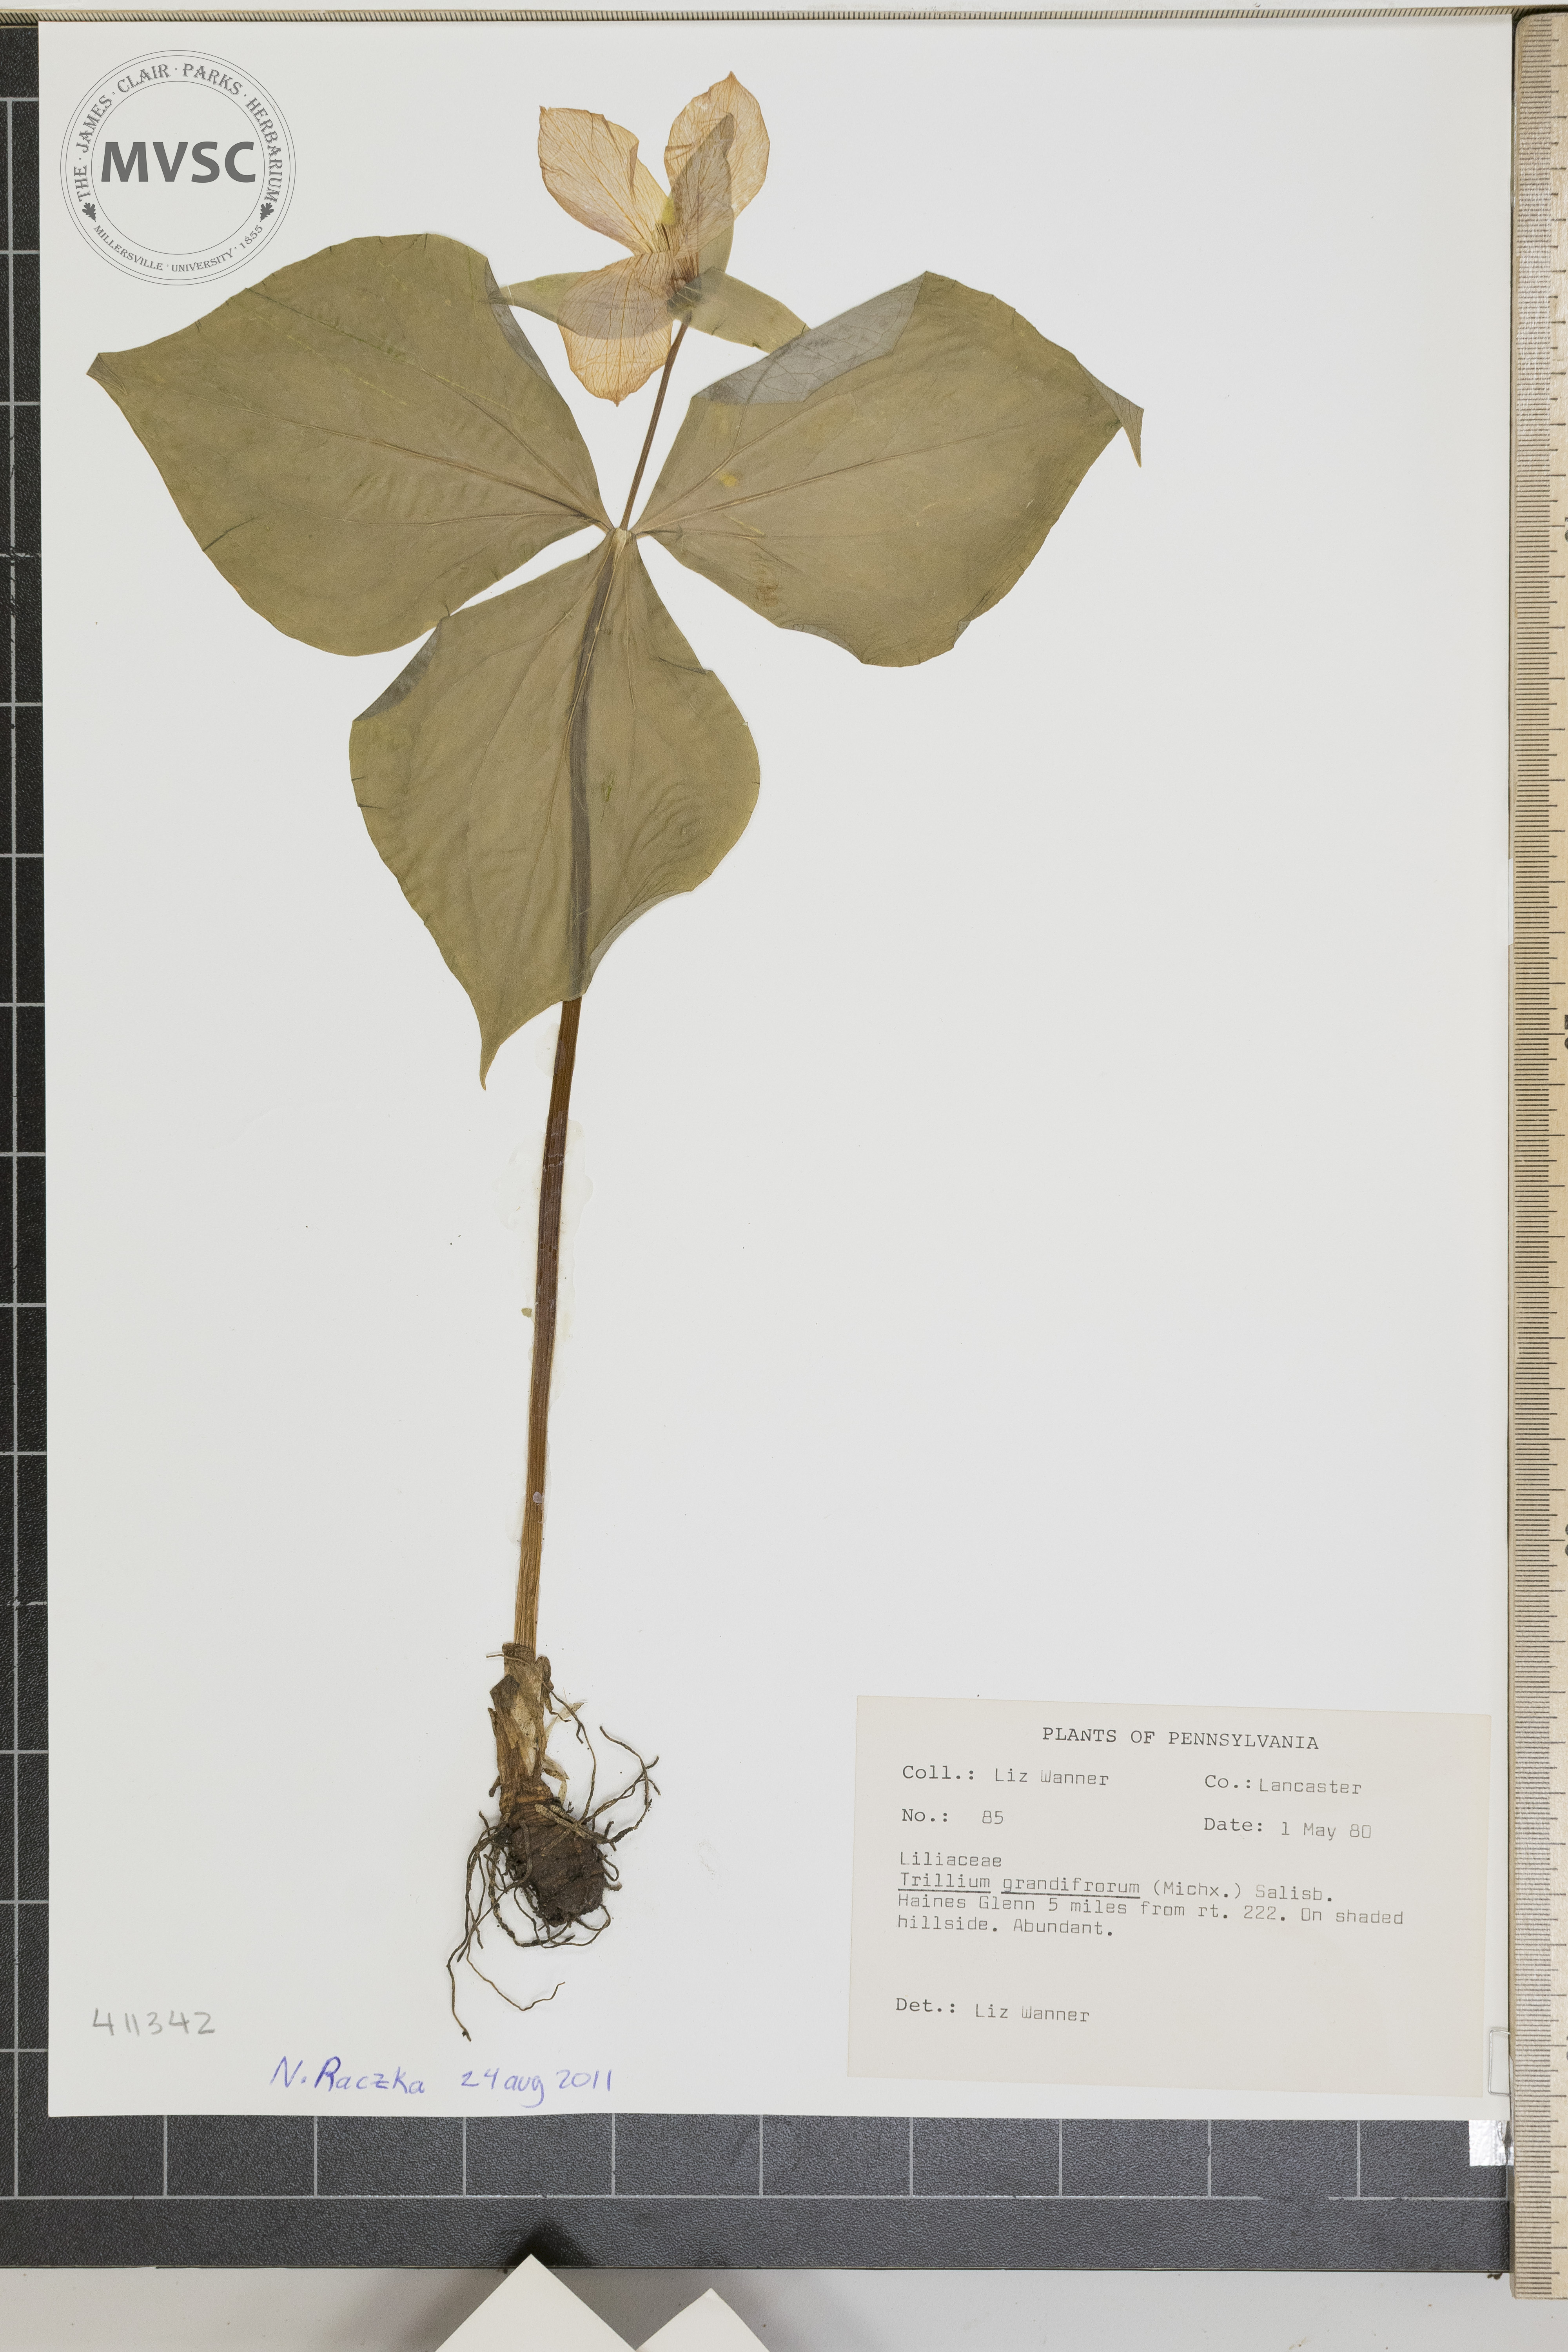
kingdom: Plantae
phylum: Tracheophyta
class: Liliopsida
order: Liliales
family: Melanthiaceae
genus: Trillium
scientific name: Trillium grandiflorum
